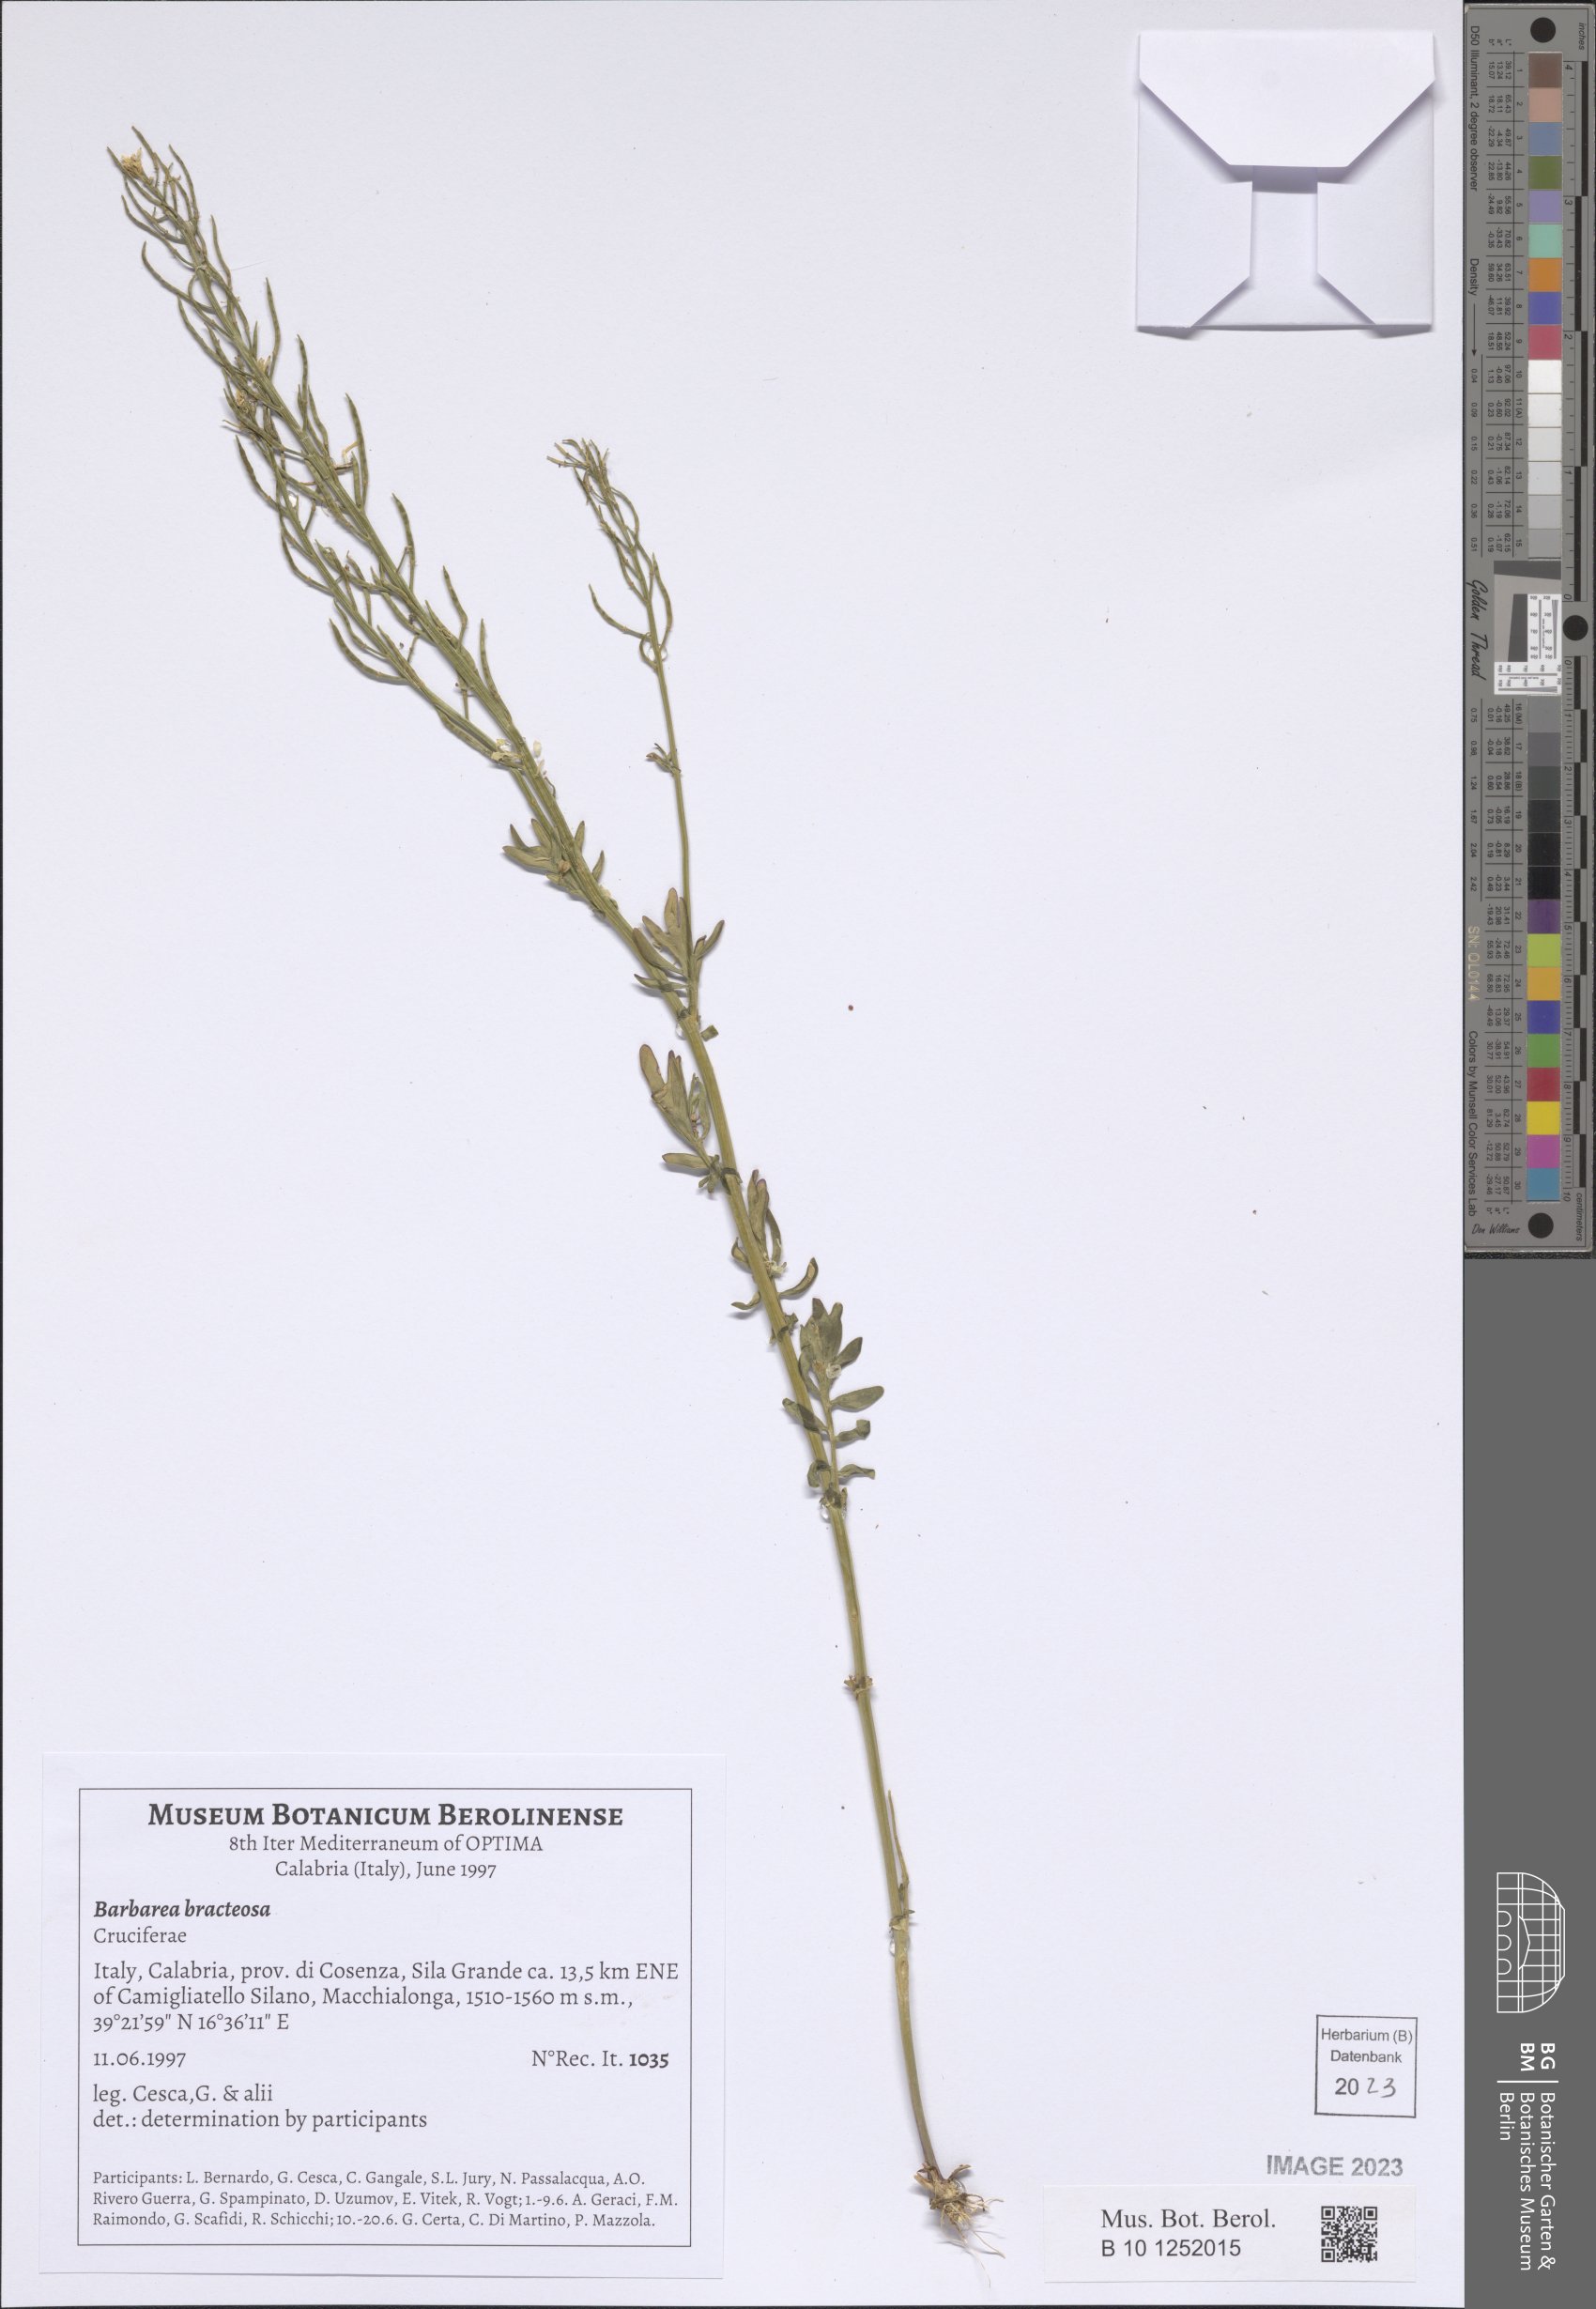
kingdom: Plantae
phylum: Tracheophyta
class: Magnoliopsida
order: Brassicales
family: Brassicaceae
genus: Barbarea
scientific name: Barbarea bracteosa
